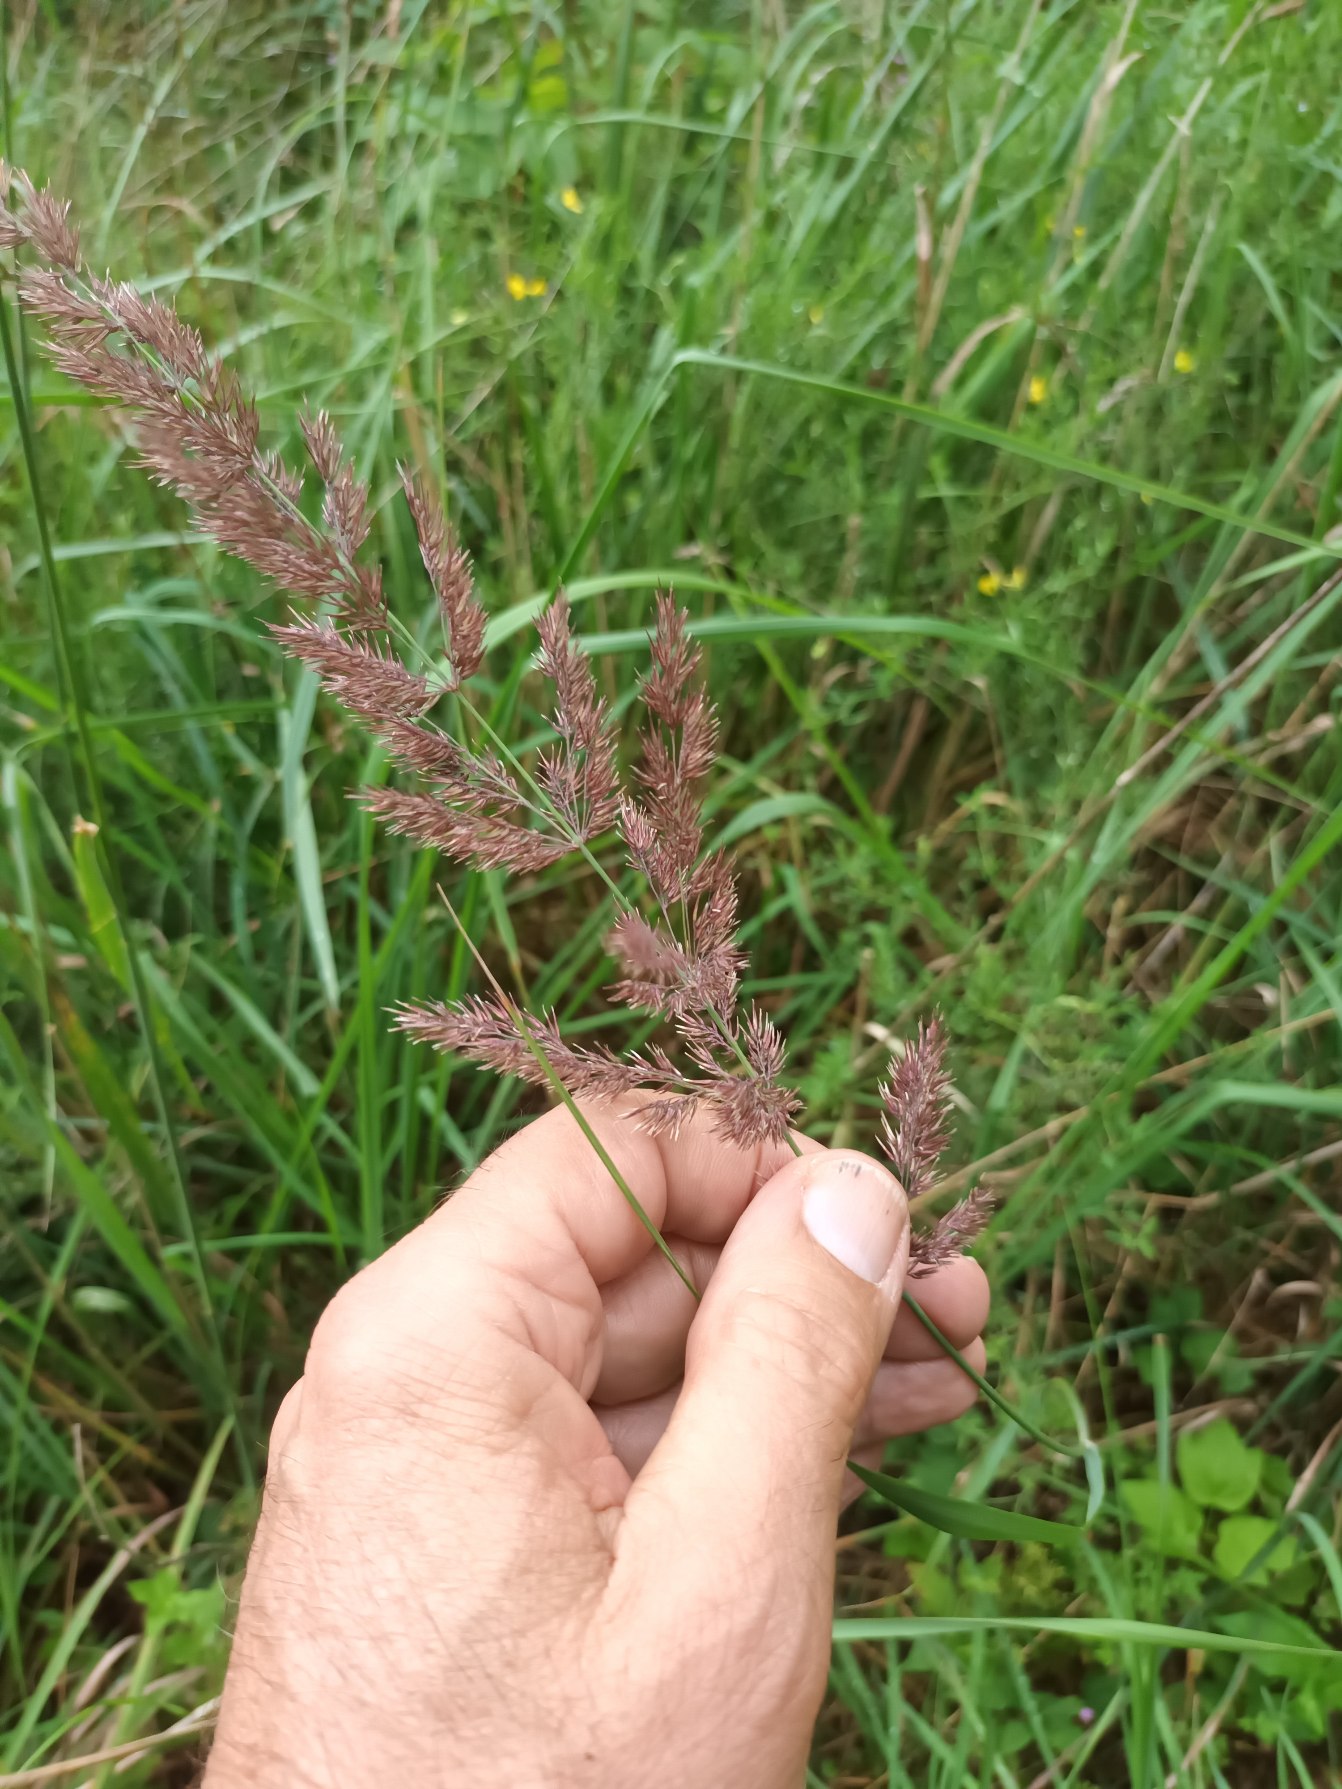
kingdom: Plantae
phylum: Tracheophyta
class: Liliopsida
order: Poales
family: Poaceae
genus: Calamagrostis
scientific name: Calamagrostis epigejos
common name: Bjerg-rørhvene
